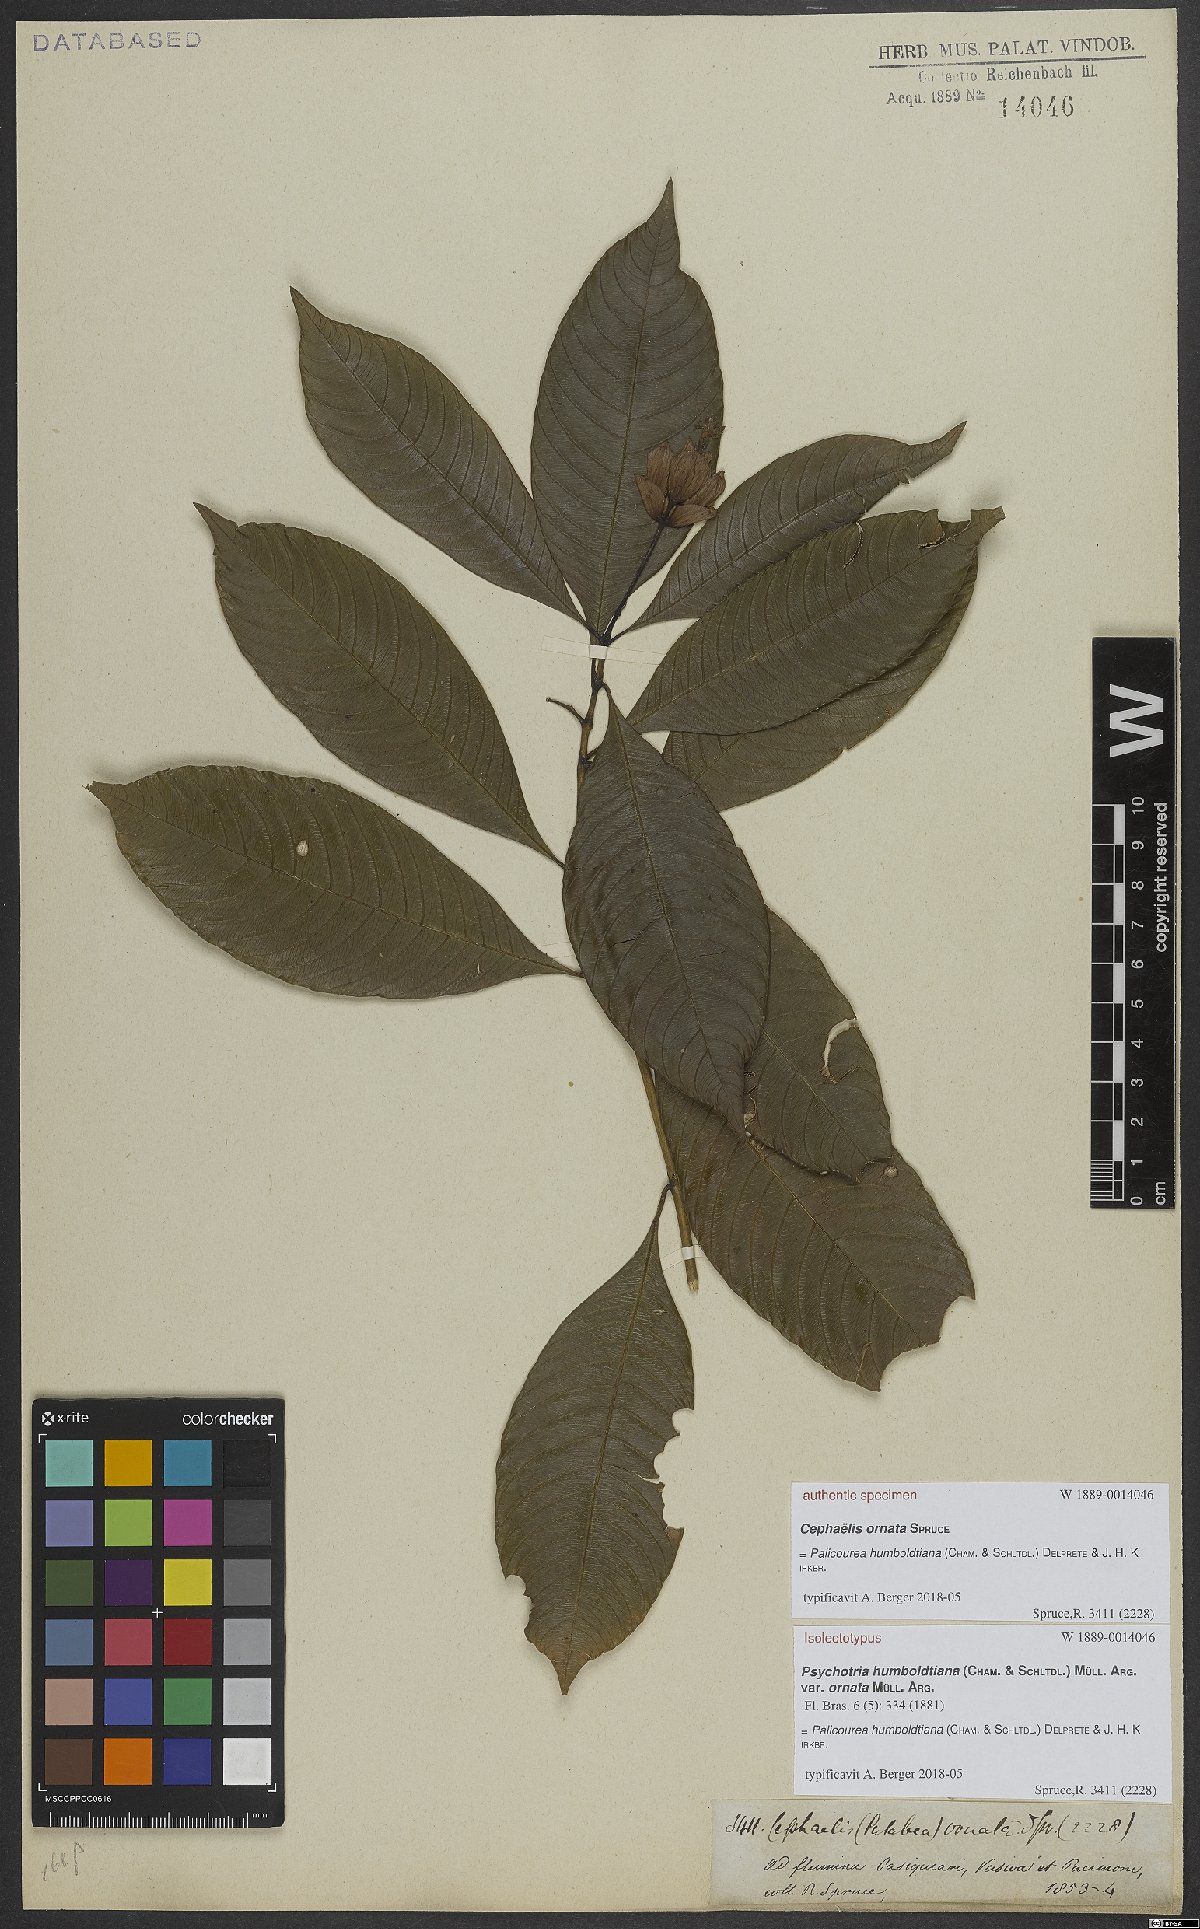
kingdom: Plantae
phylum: Tracheophyta
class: Magnoliopsida
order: Gentianales
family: Rubiaceae
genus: Palicourea
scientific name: Palicourea humboldtiana
